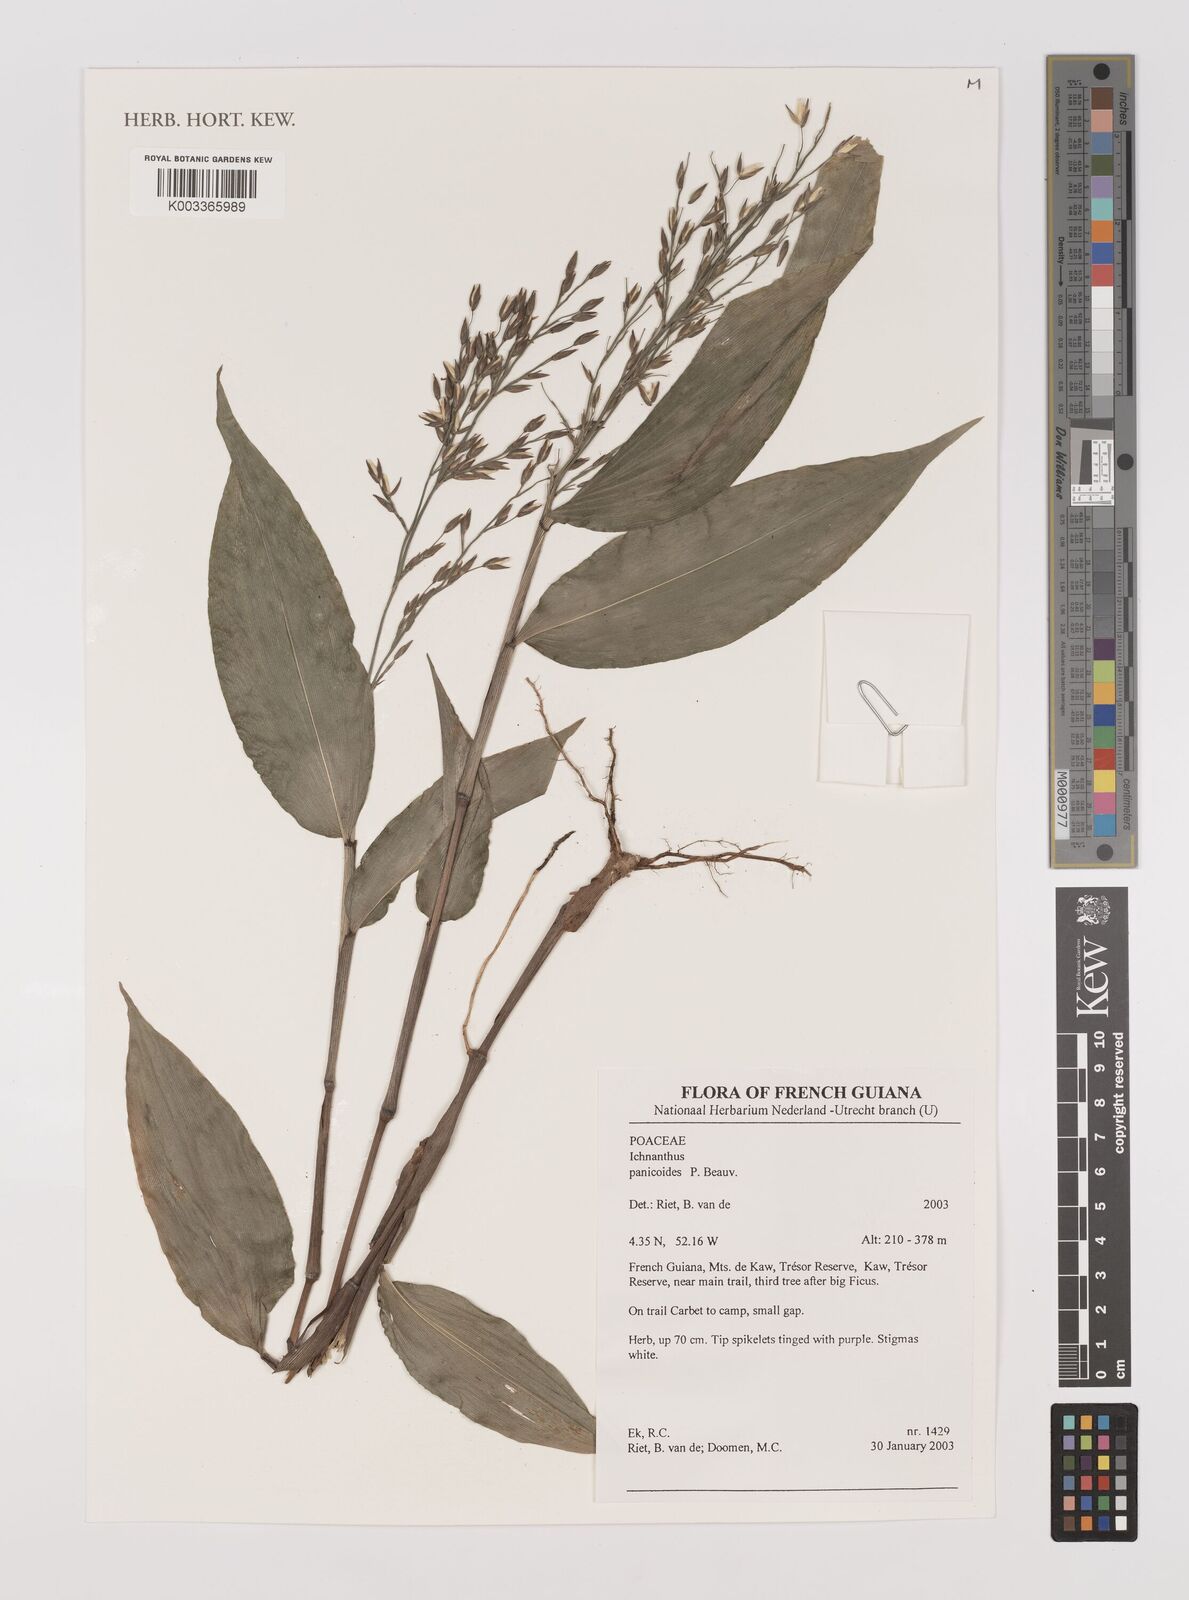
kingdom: Plantae
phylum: Tracheophyta
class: Liliopsida
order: Poales
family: Poaceae
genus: Ichnanthus
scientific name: Ichnanthus panicoides
